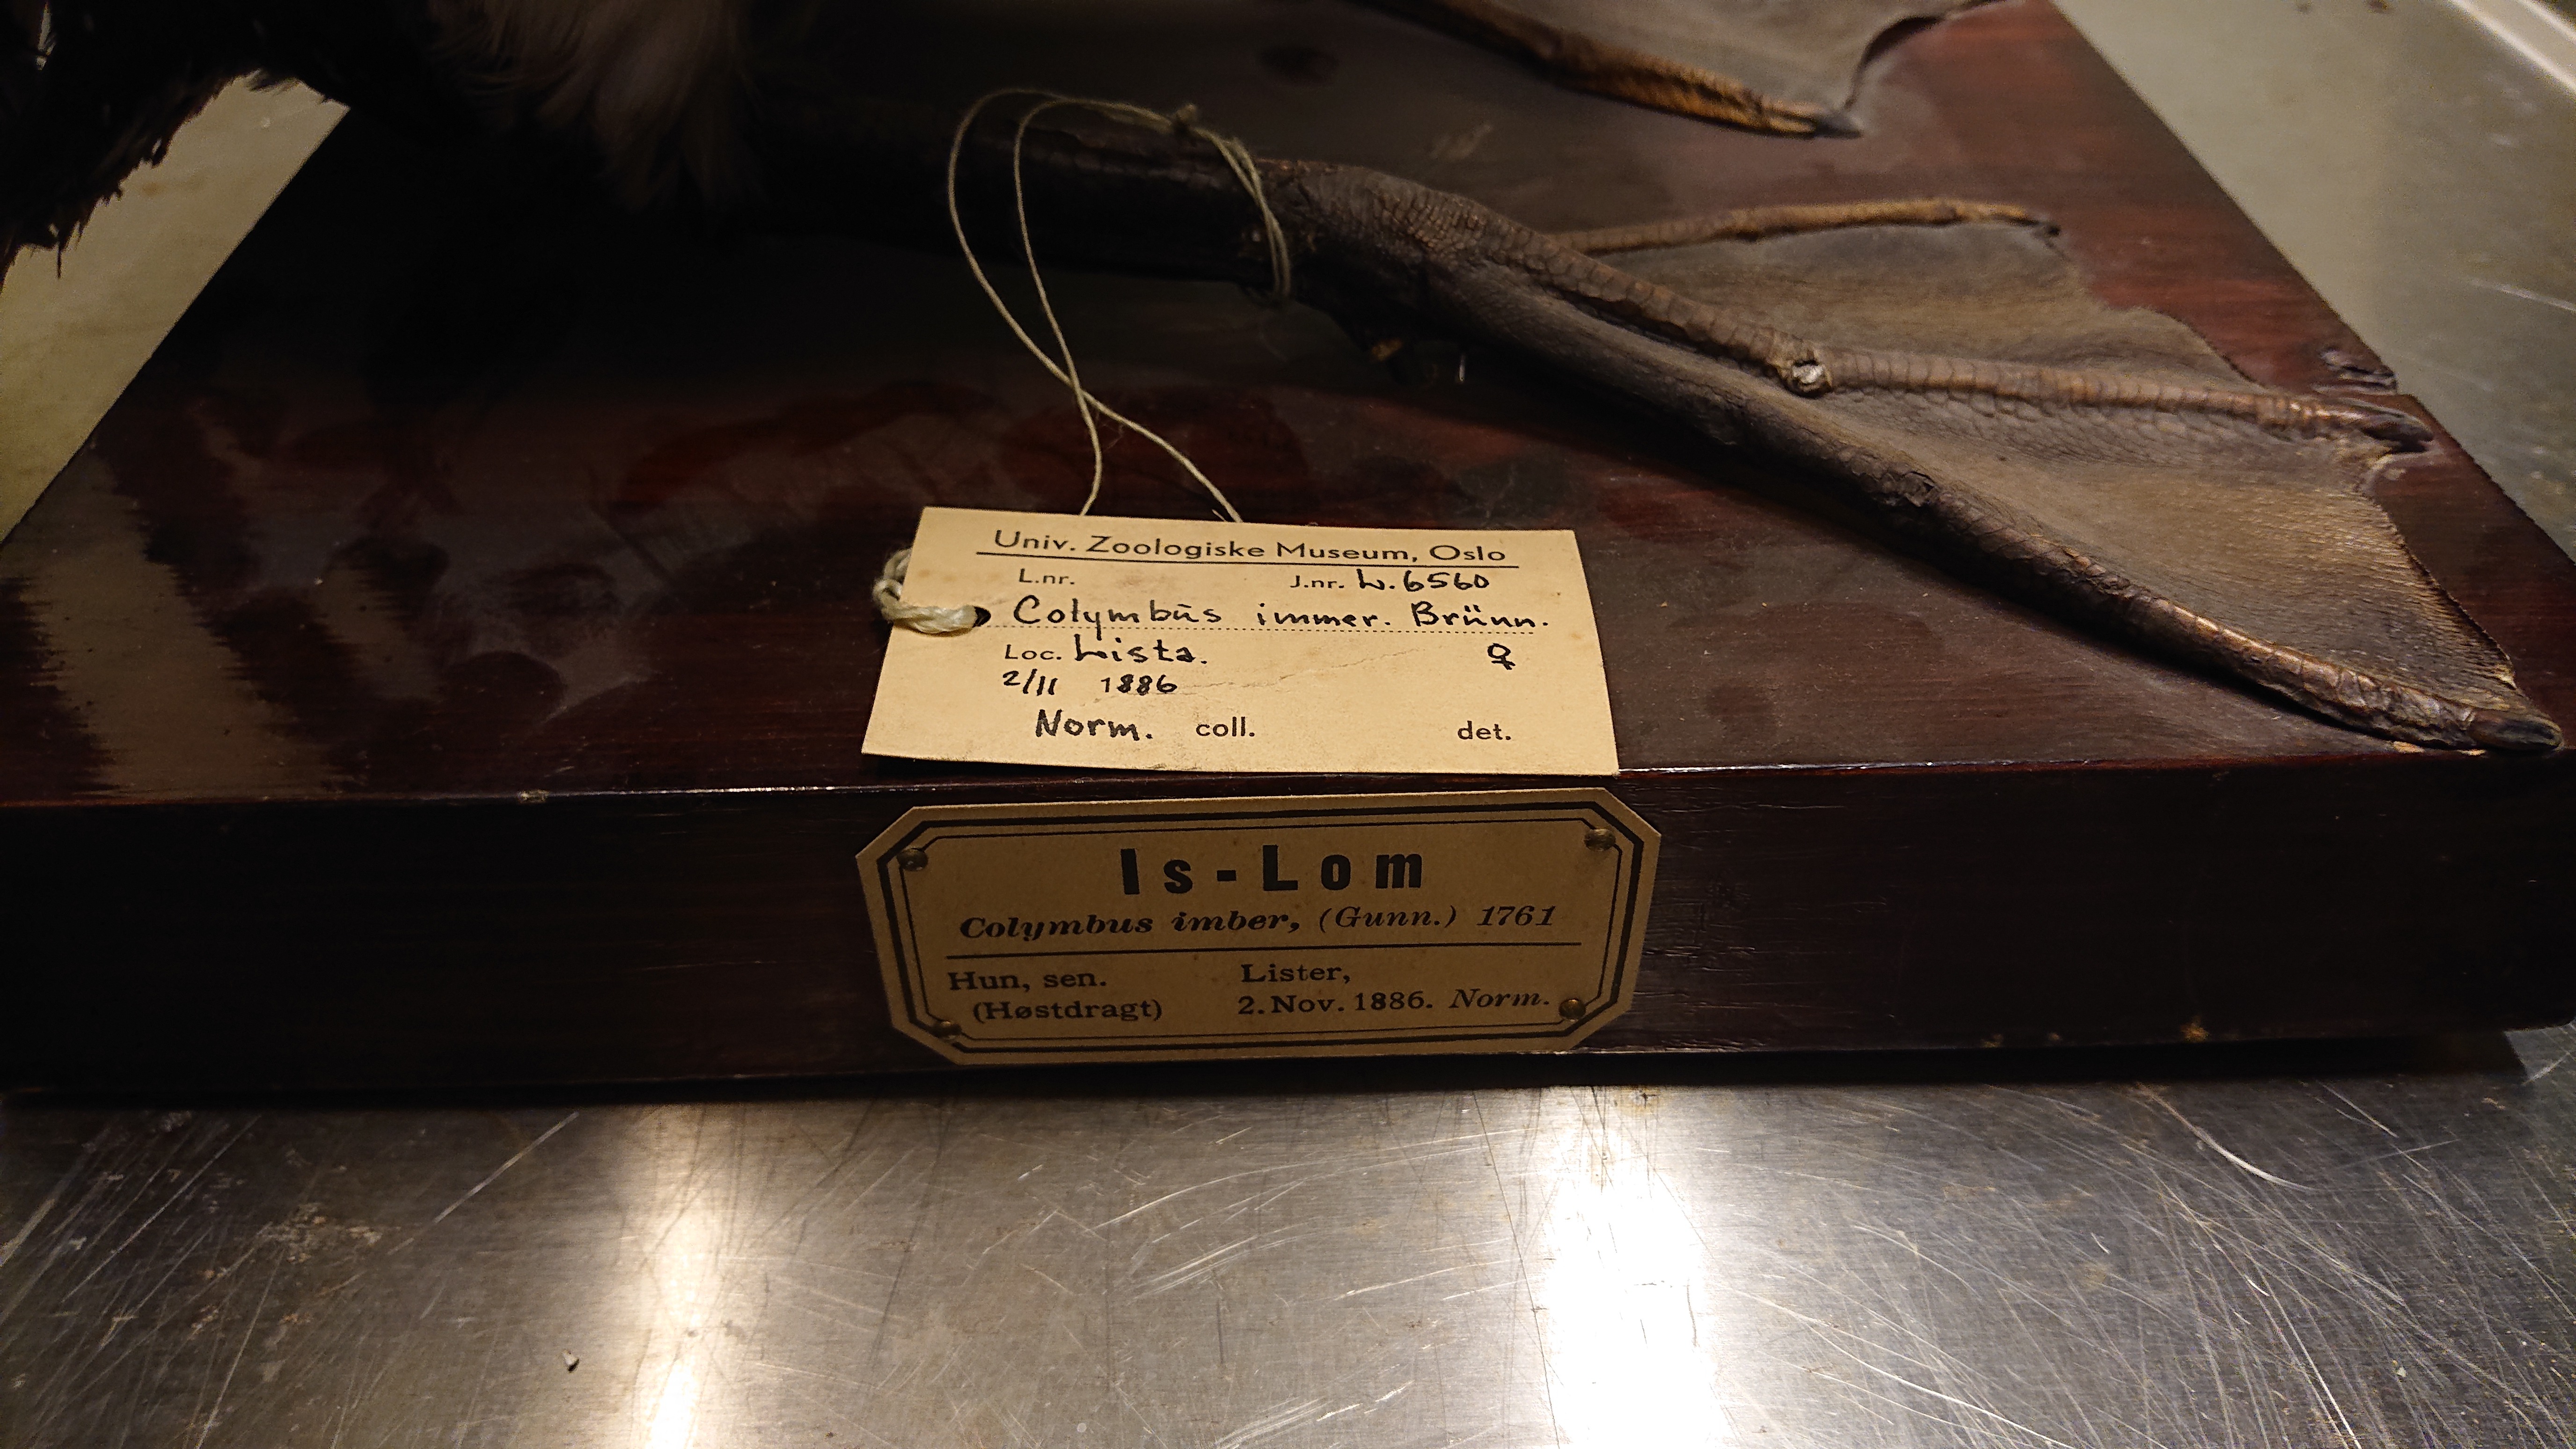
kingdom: Animalia
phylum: Chordata
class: Aves
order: Gaviiformes
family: Gaviidae
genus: Gavia
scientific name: Gavia immer
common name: Common loon
